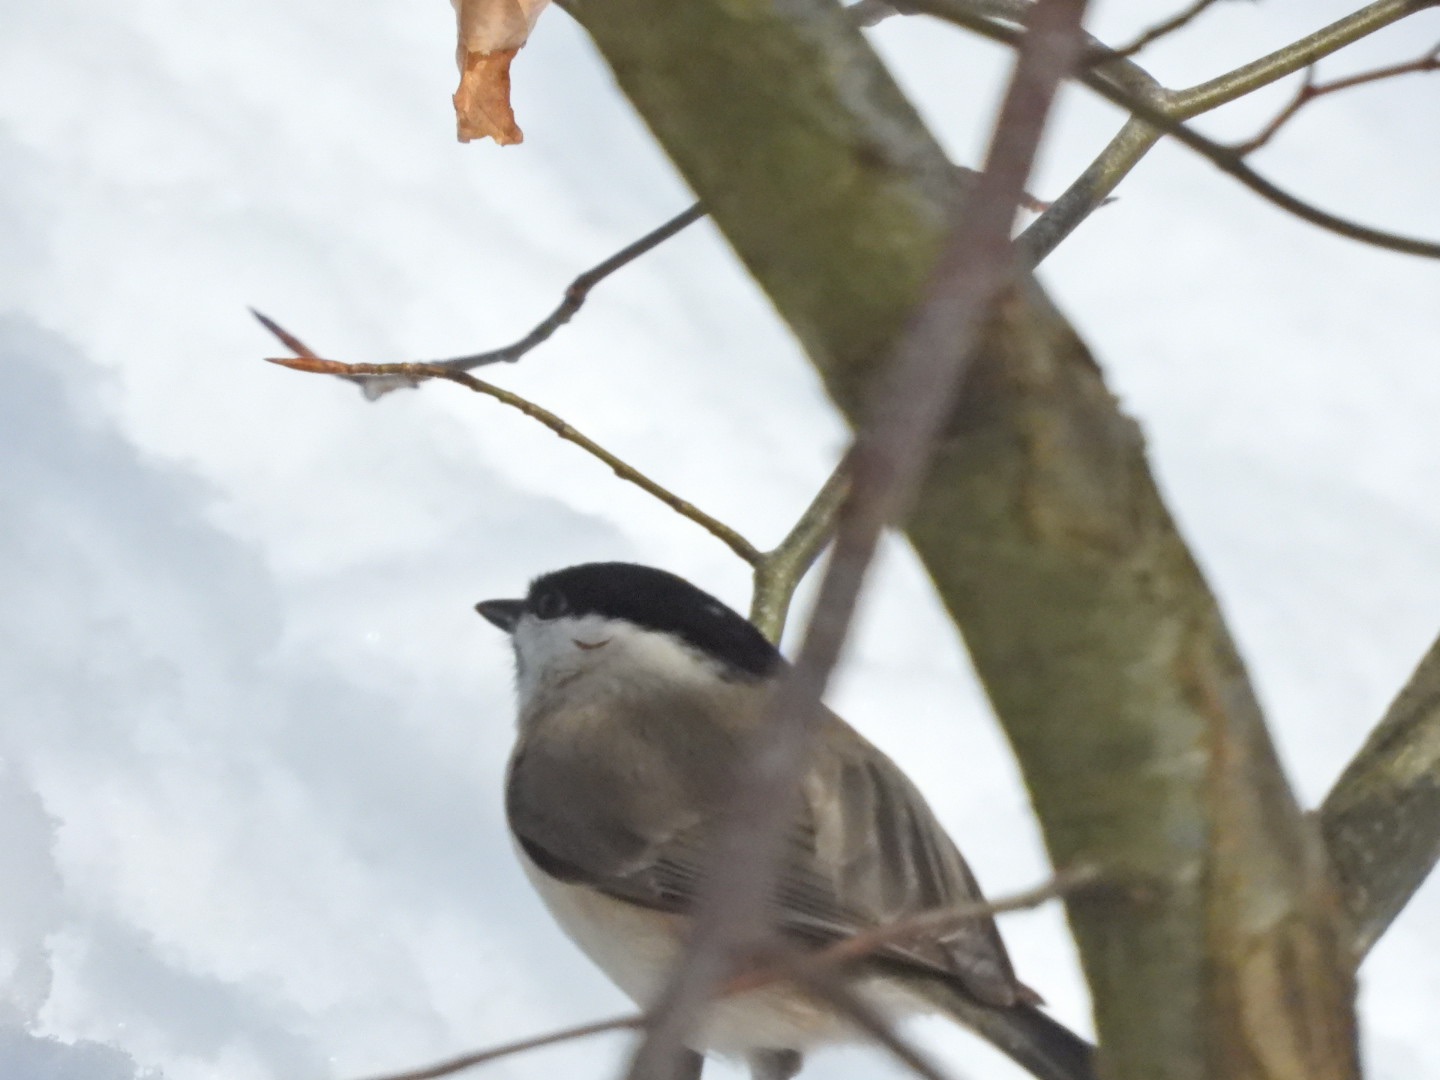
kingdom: Animalia
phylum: Chordata
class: Aves
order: Passeriformes
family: Paridae
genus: Poecile
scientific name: Poecile palustris
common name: Sumpmejse
